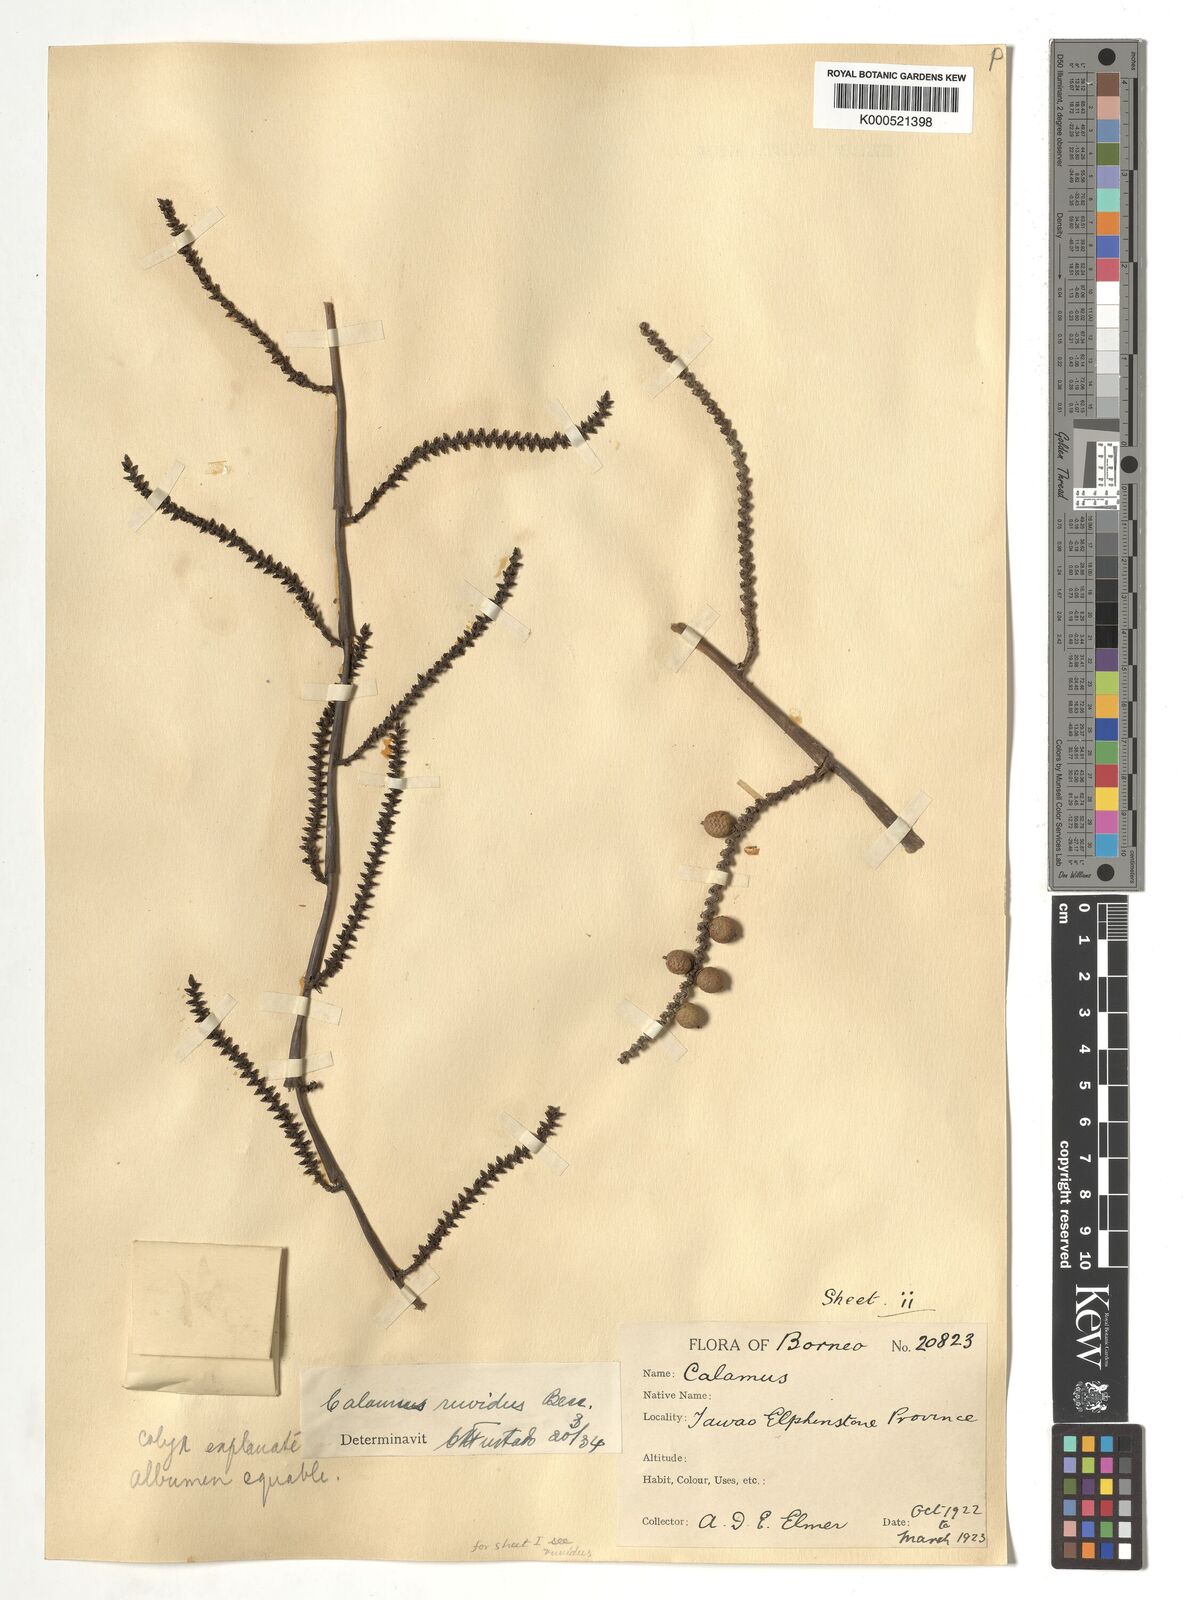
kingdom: Plantae
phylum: Tracheophyta
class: Liliopsida
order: Arecales
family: Arecaceae
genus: Calamus
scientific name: Calamus zonatus
